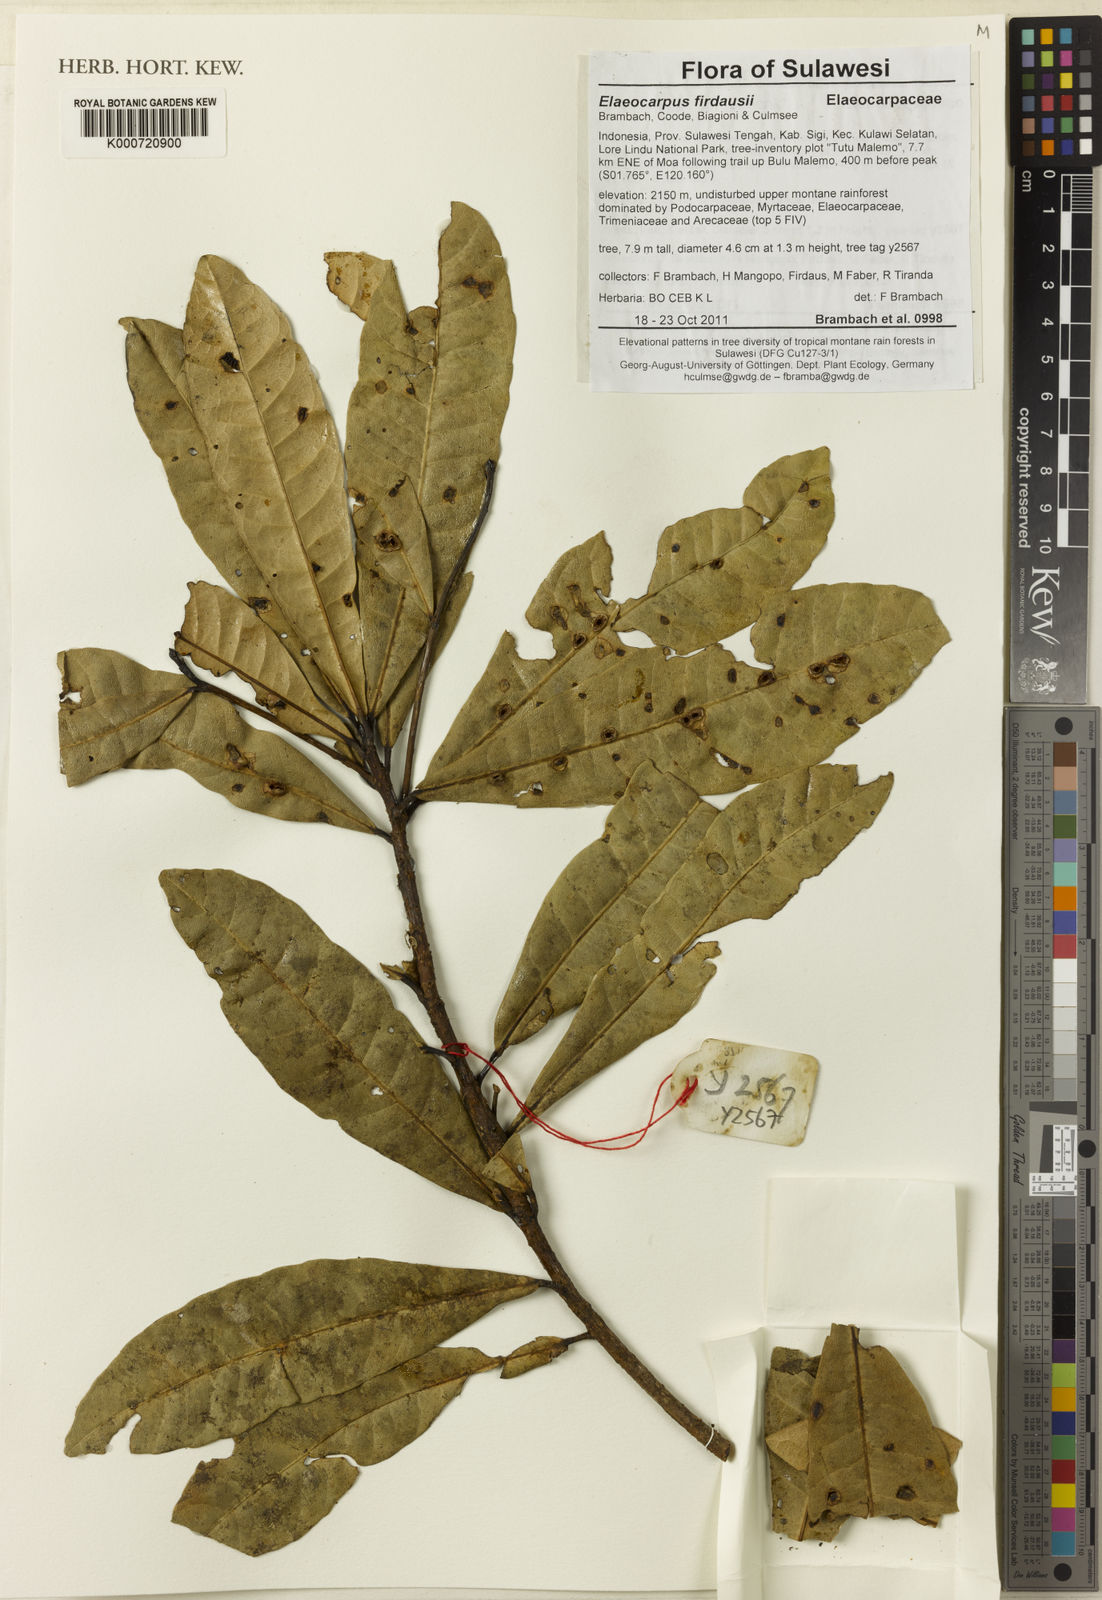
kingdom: Plantae
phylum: Tracheophyta
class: Magnoliopsida
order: Oxalidales
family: Elaeocarpaceae
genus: Elaeocarpus
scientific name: Elaeocarpus firdausii
